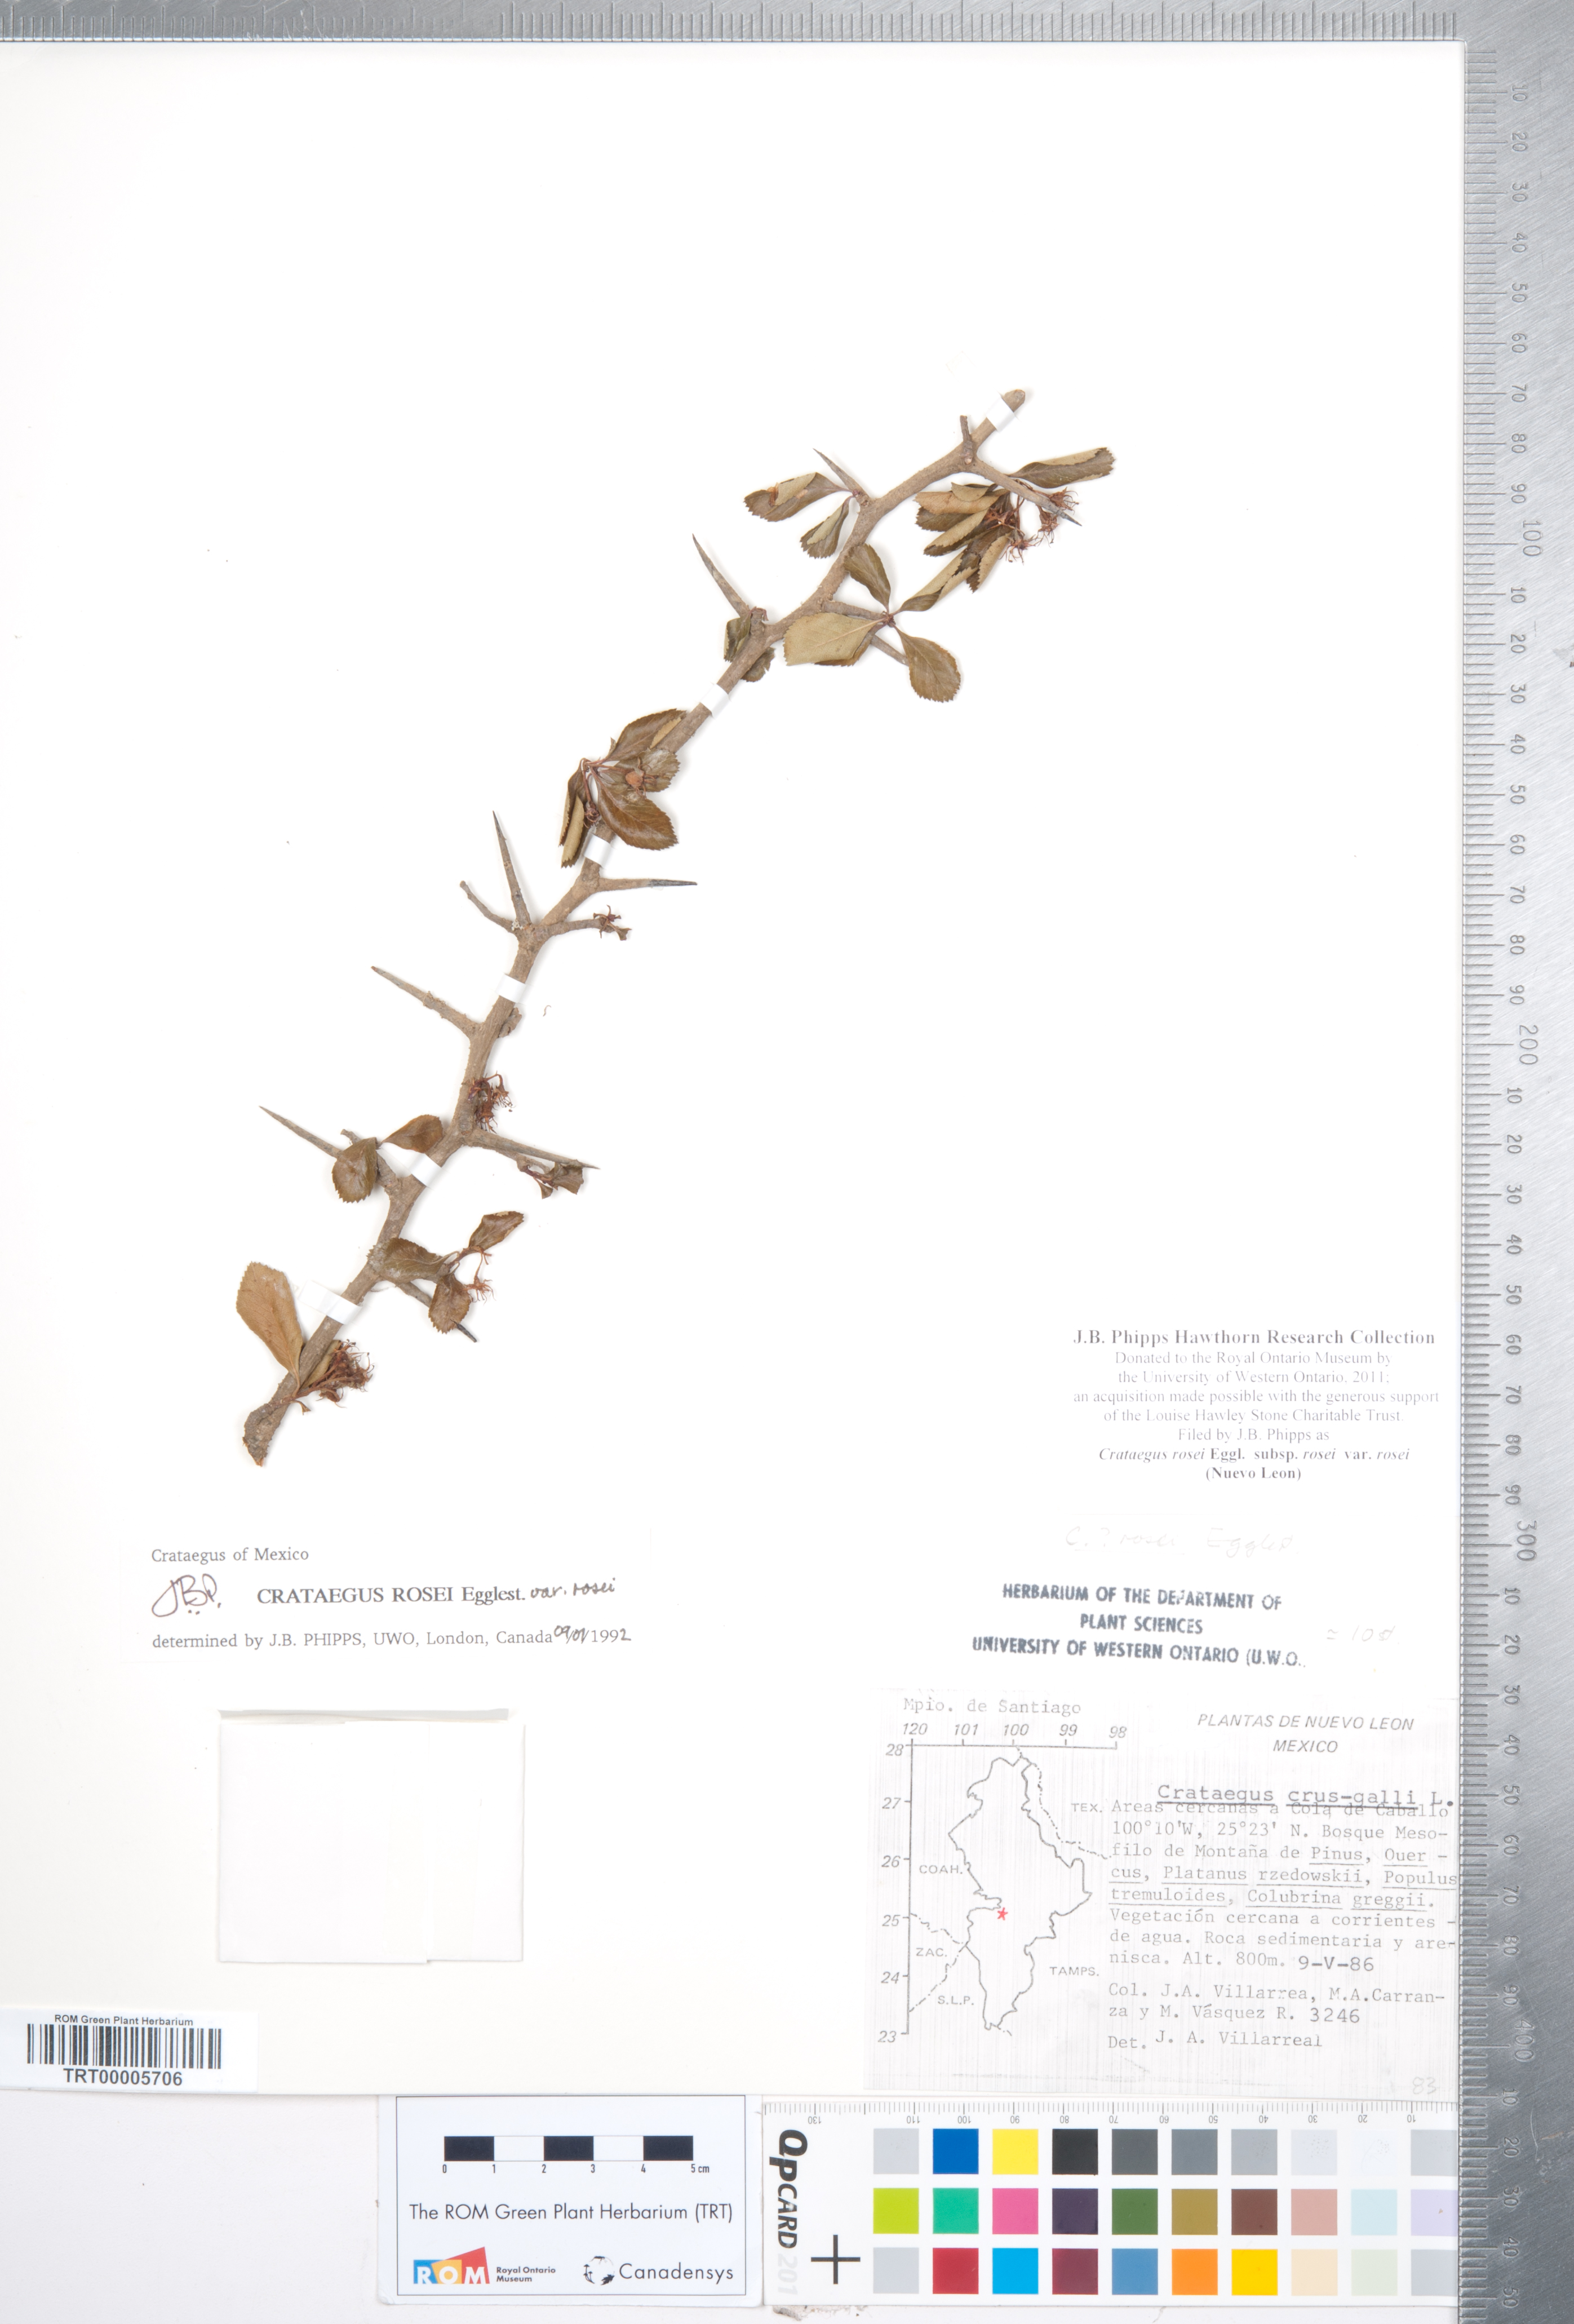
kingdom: Plantae
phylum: Tracheophyta
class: Magnoliopsida
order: Rosales
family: Rosaceae
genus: Crataegus
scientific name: Crataegus rosei
